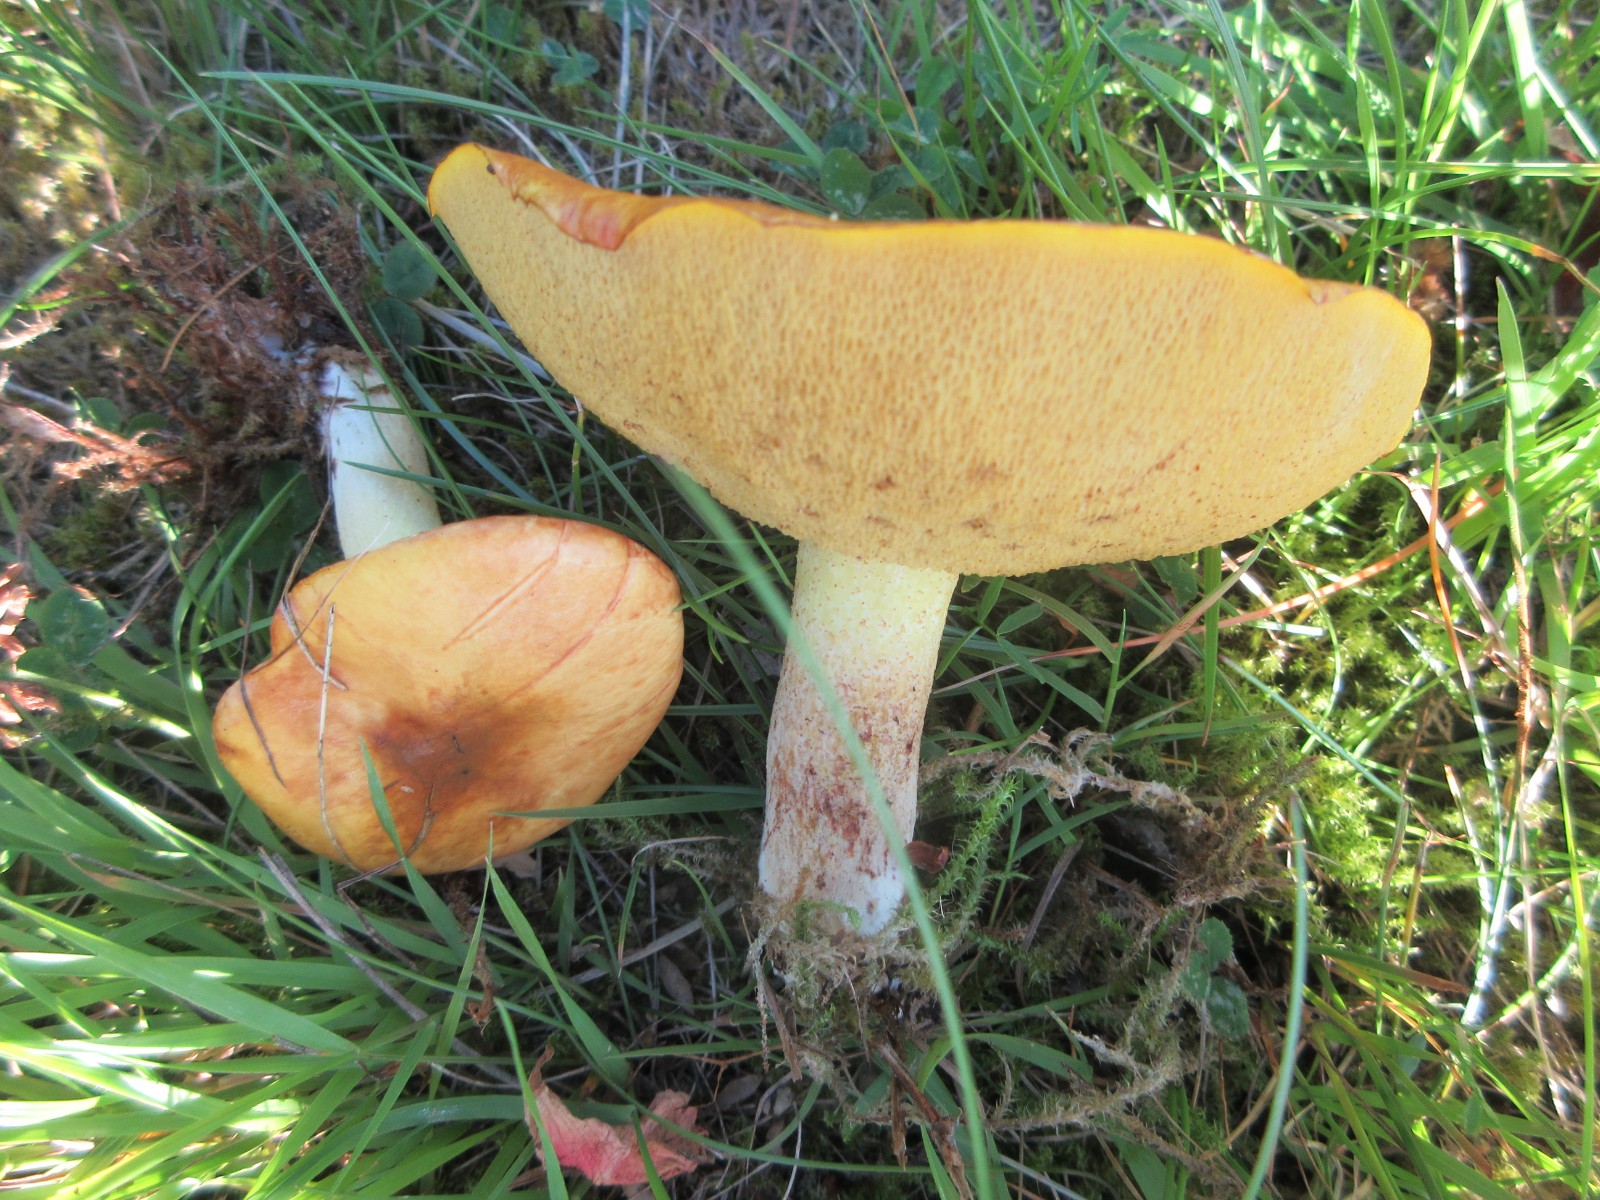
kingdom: Fungi
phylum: Basidiomycota
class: Agaricomycetes
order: Boletales
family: Suillaceae
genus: Suillus
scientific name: Suillus granulatus
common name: kornet slimrørhat
